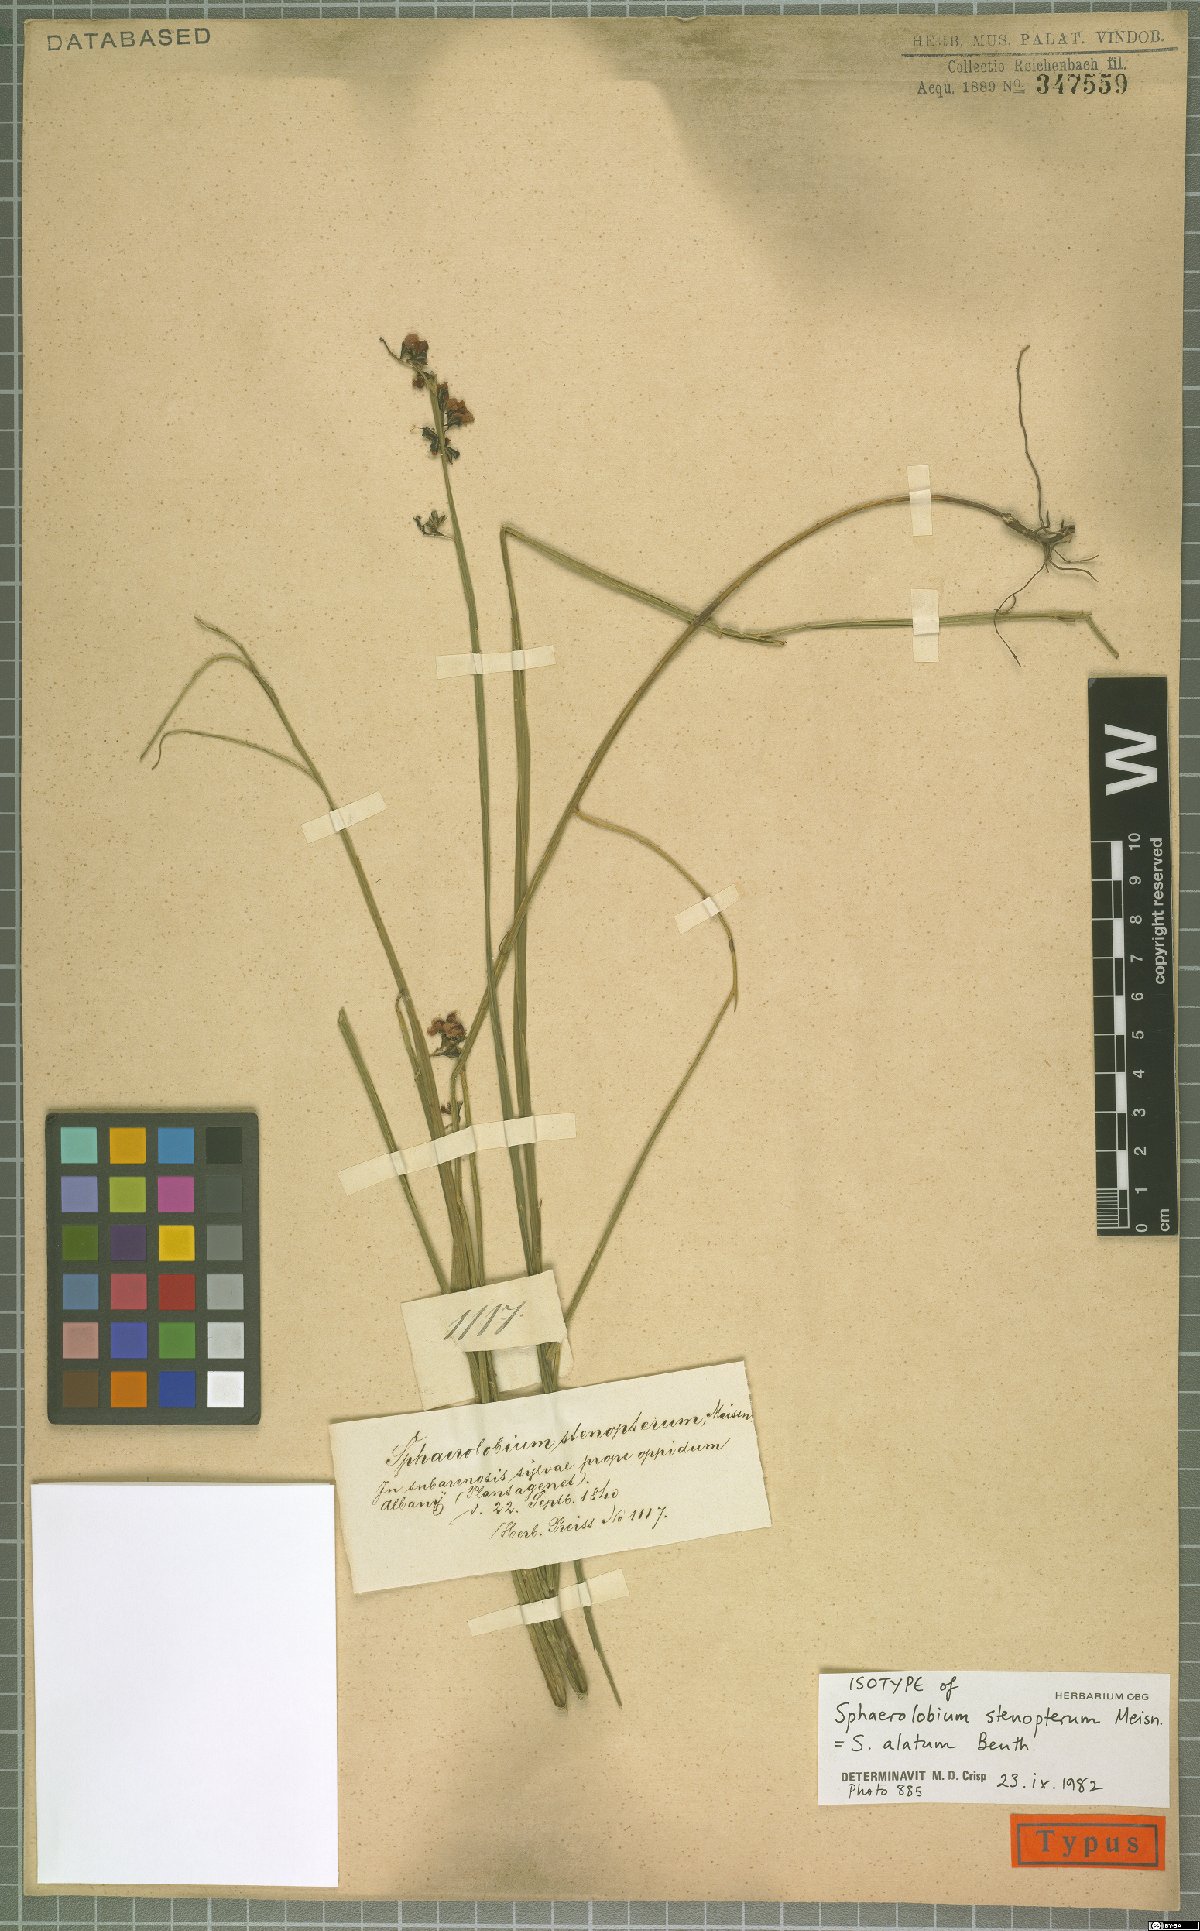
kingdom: Plantae
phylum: Tracheophyta
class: Magnoliopsida
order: Fabales
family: Fabaceae
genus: Sphaerolobium
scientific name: Sphaerolobium alatum
